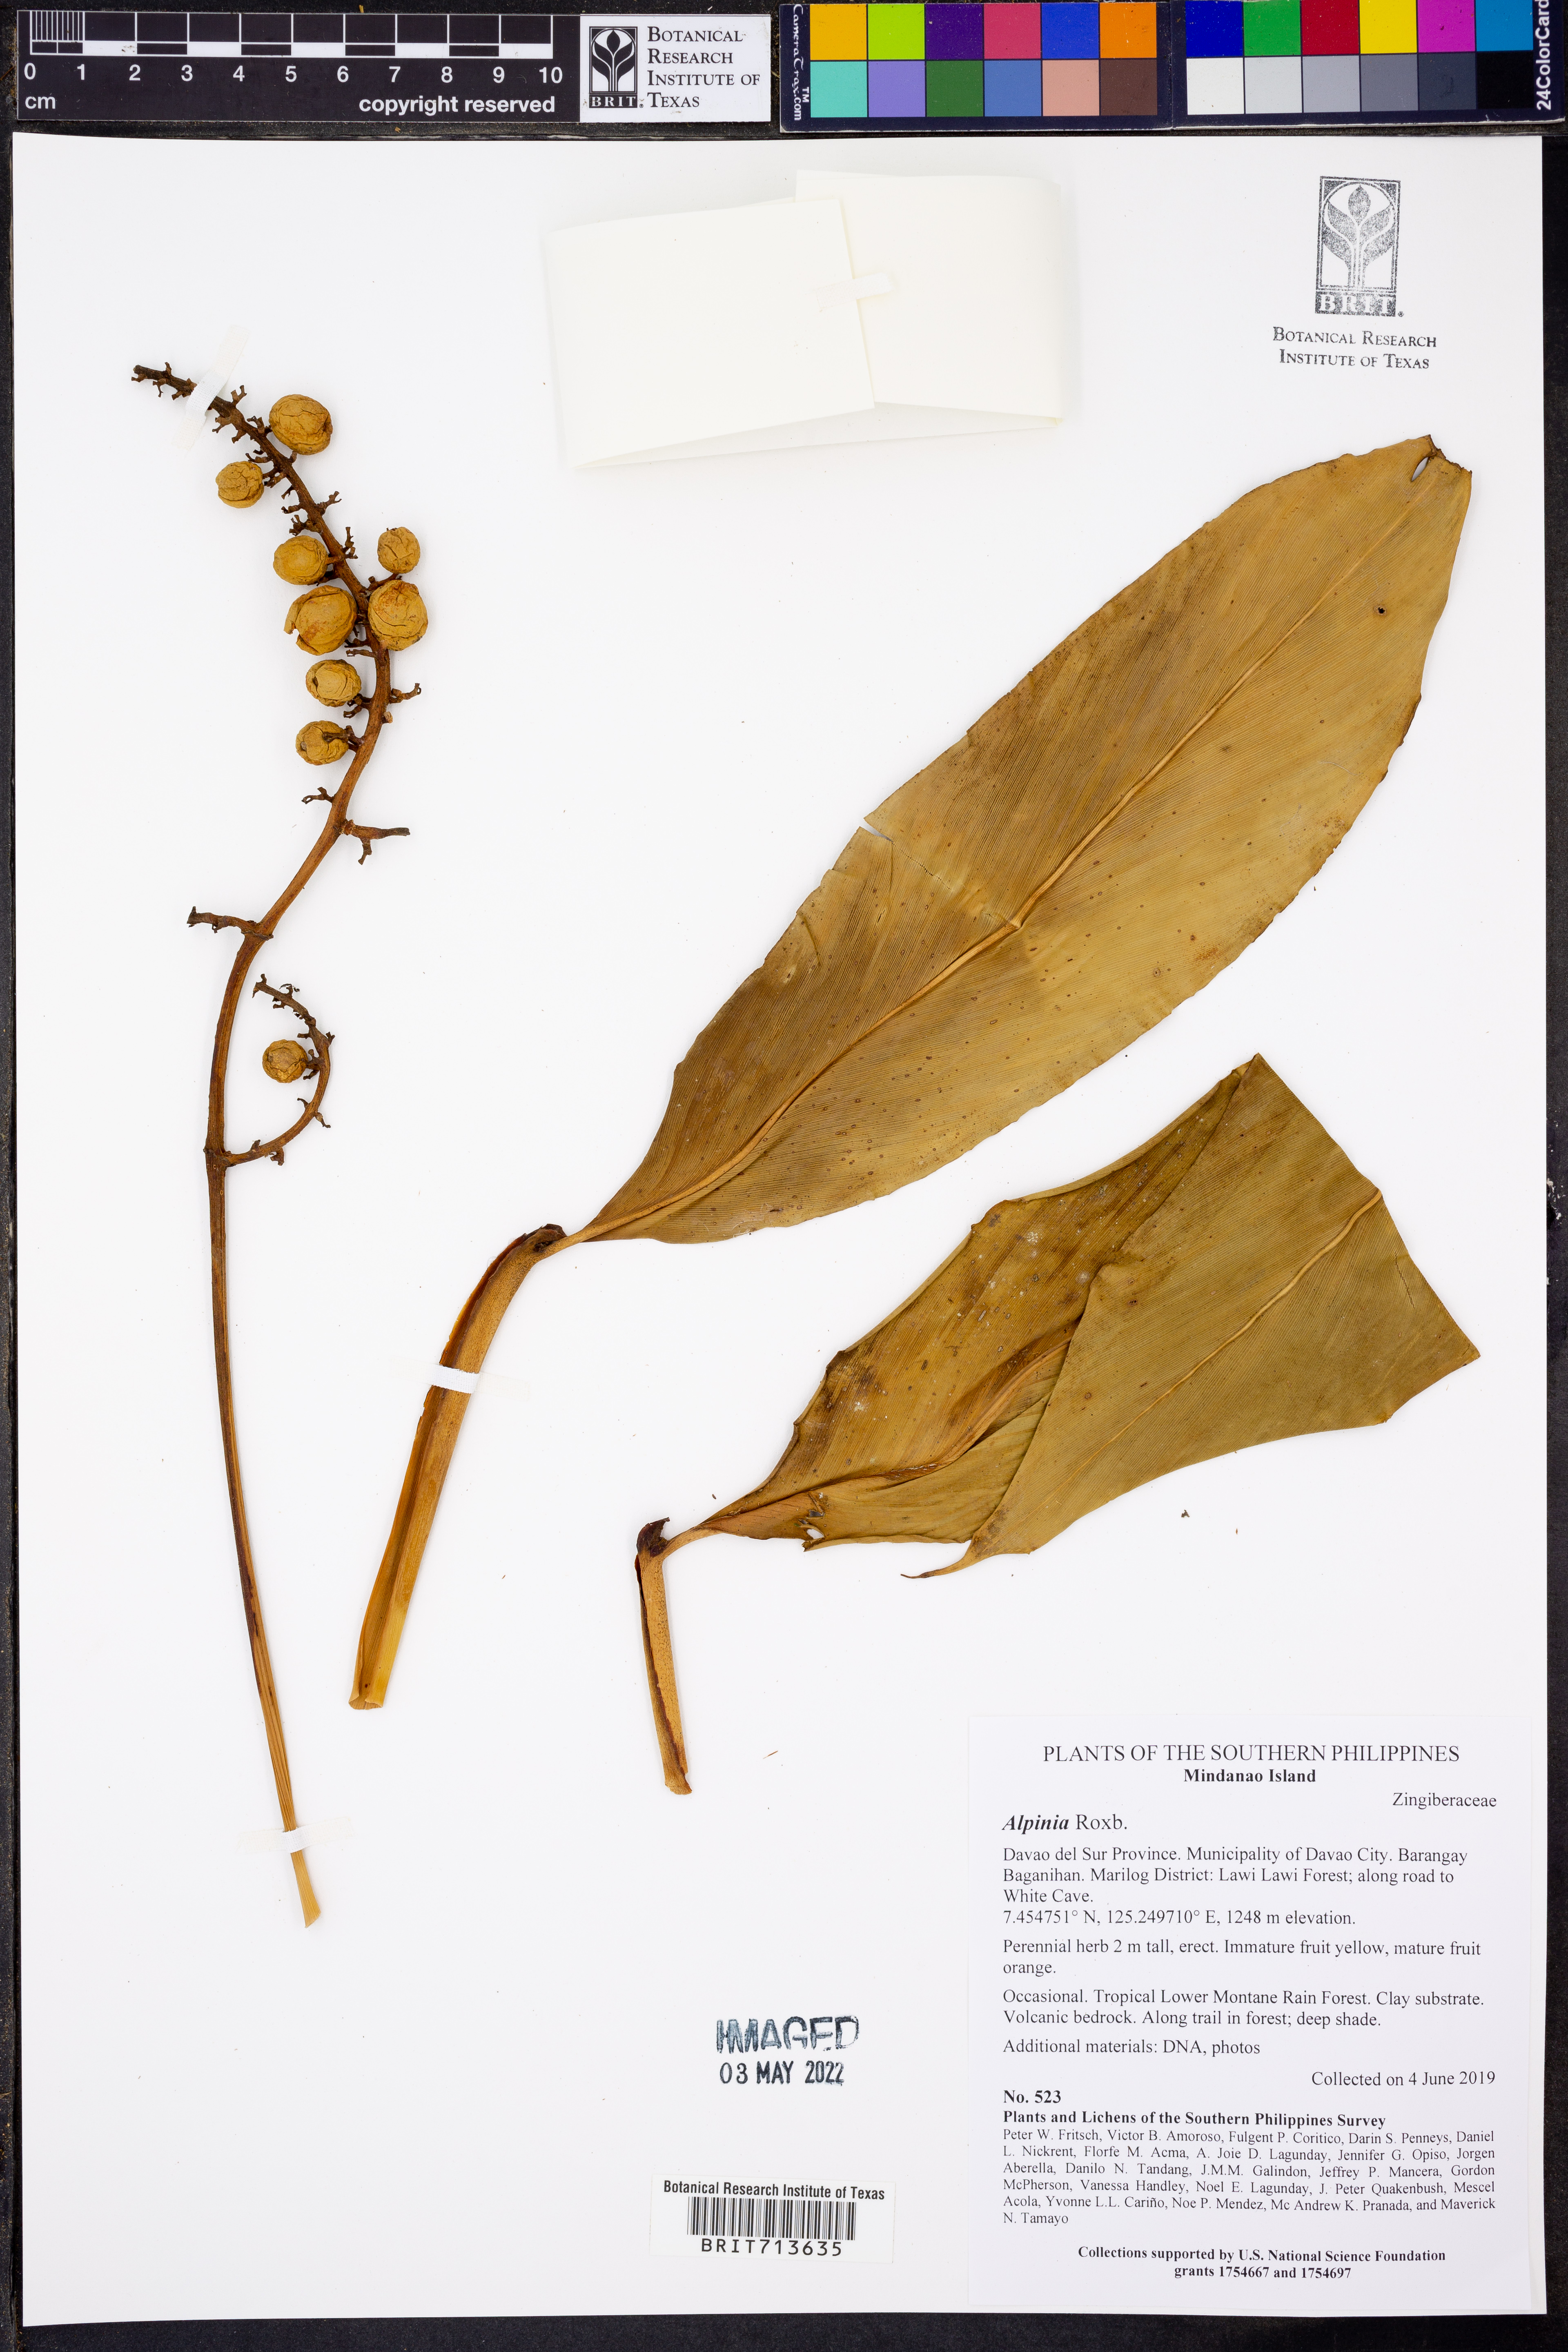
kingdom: Plantae
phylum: Tracheophyta
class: Liliopsida
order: Zingiberales
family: Zingiberaceae
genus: Alpinia
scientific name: Alpinia
